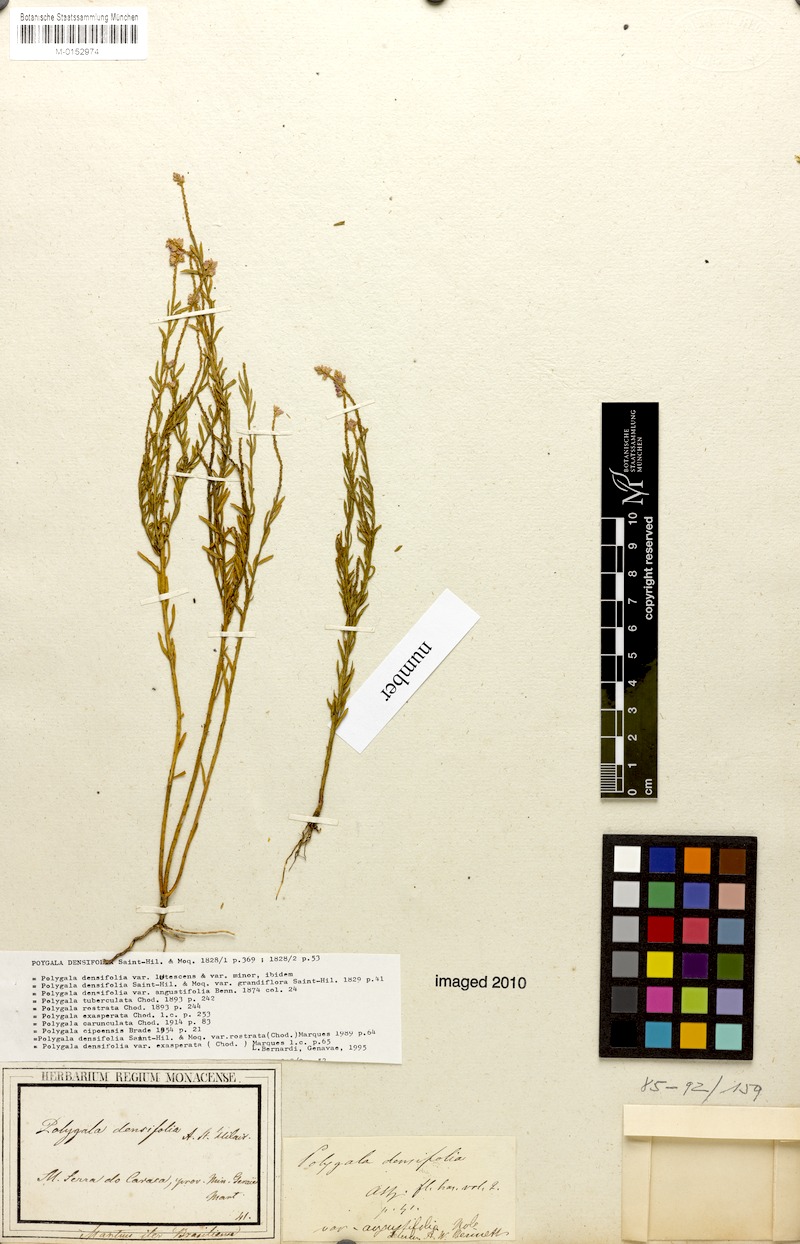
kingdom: Plantae
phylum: Tracheophyta
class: Magnoliopsida
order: Fabales
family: Polygalaceae
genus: Polygala
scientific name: Polygala densifolia
